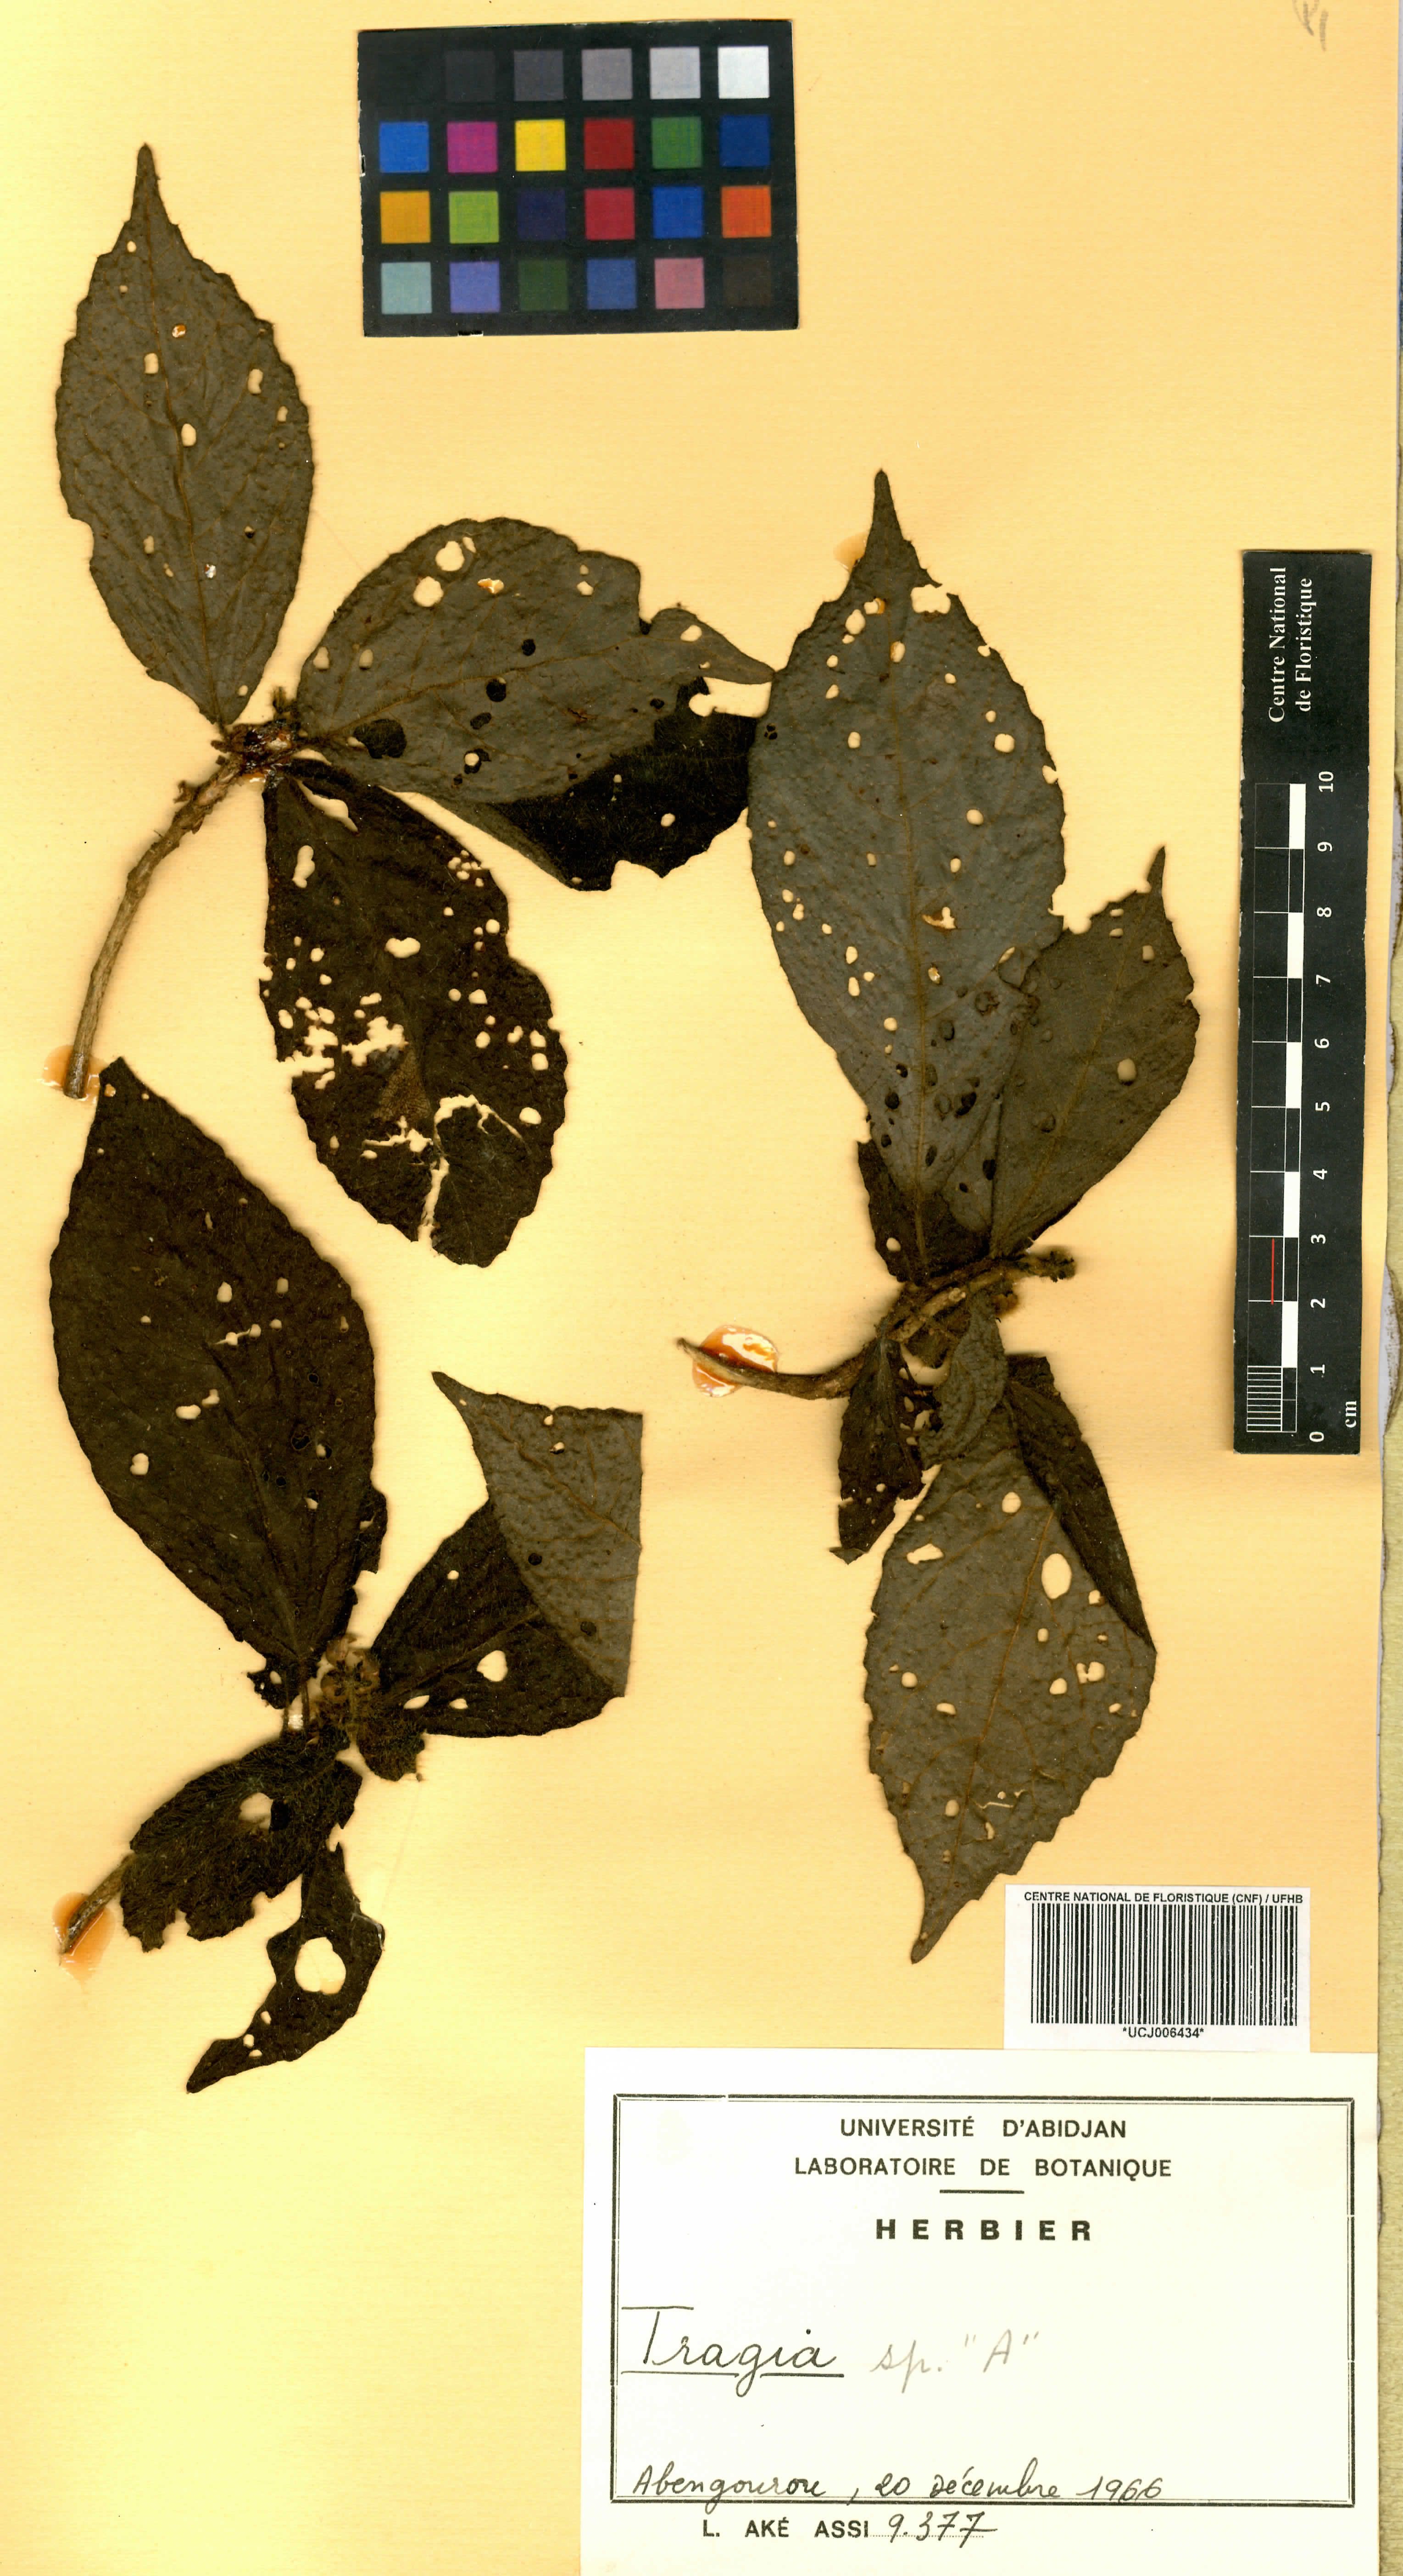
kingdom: Plantae
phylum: Tracheophyta
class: Magnoliopsida
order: Malpighiales
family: Euphorbiaceae
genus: Tragia
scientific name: Tragia
